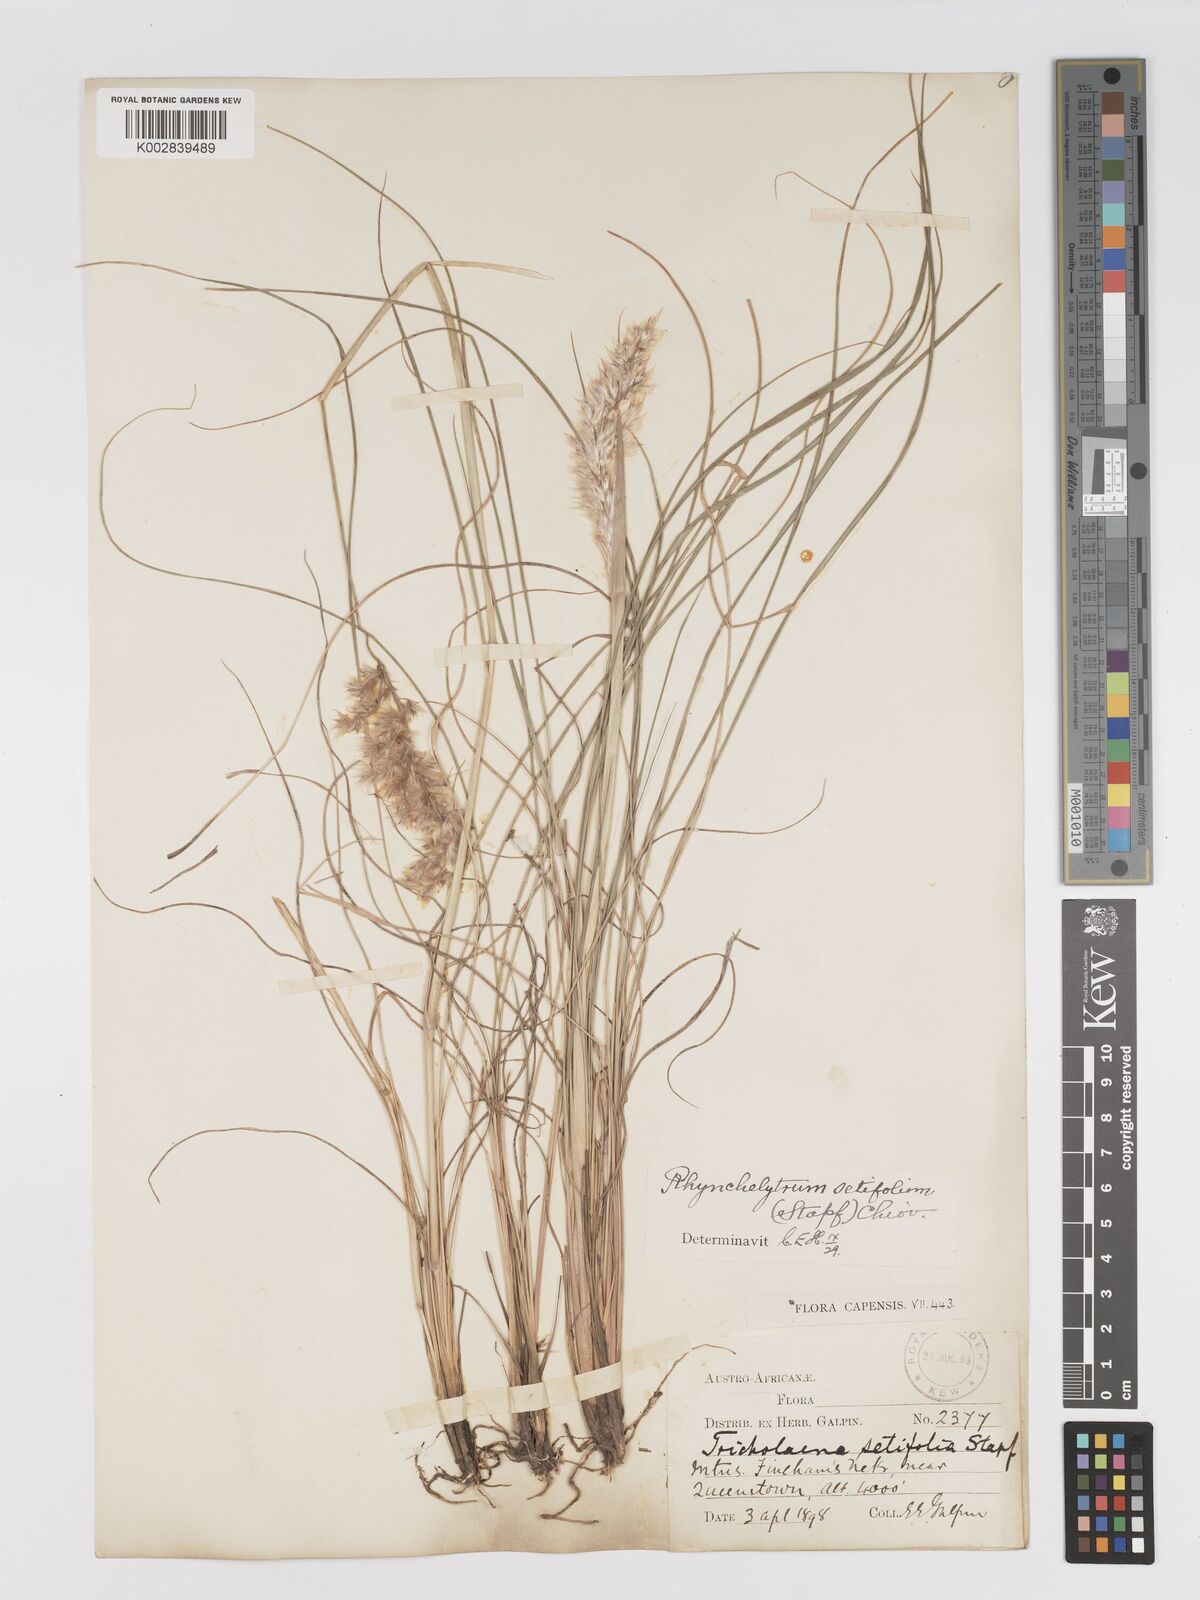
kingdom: Plantae
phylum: Tracheophyta
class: Liliopsida
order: Poales
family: Poaceae
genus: Melinis
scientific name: Melinis nerviglumis
